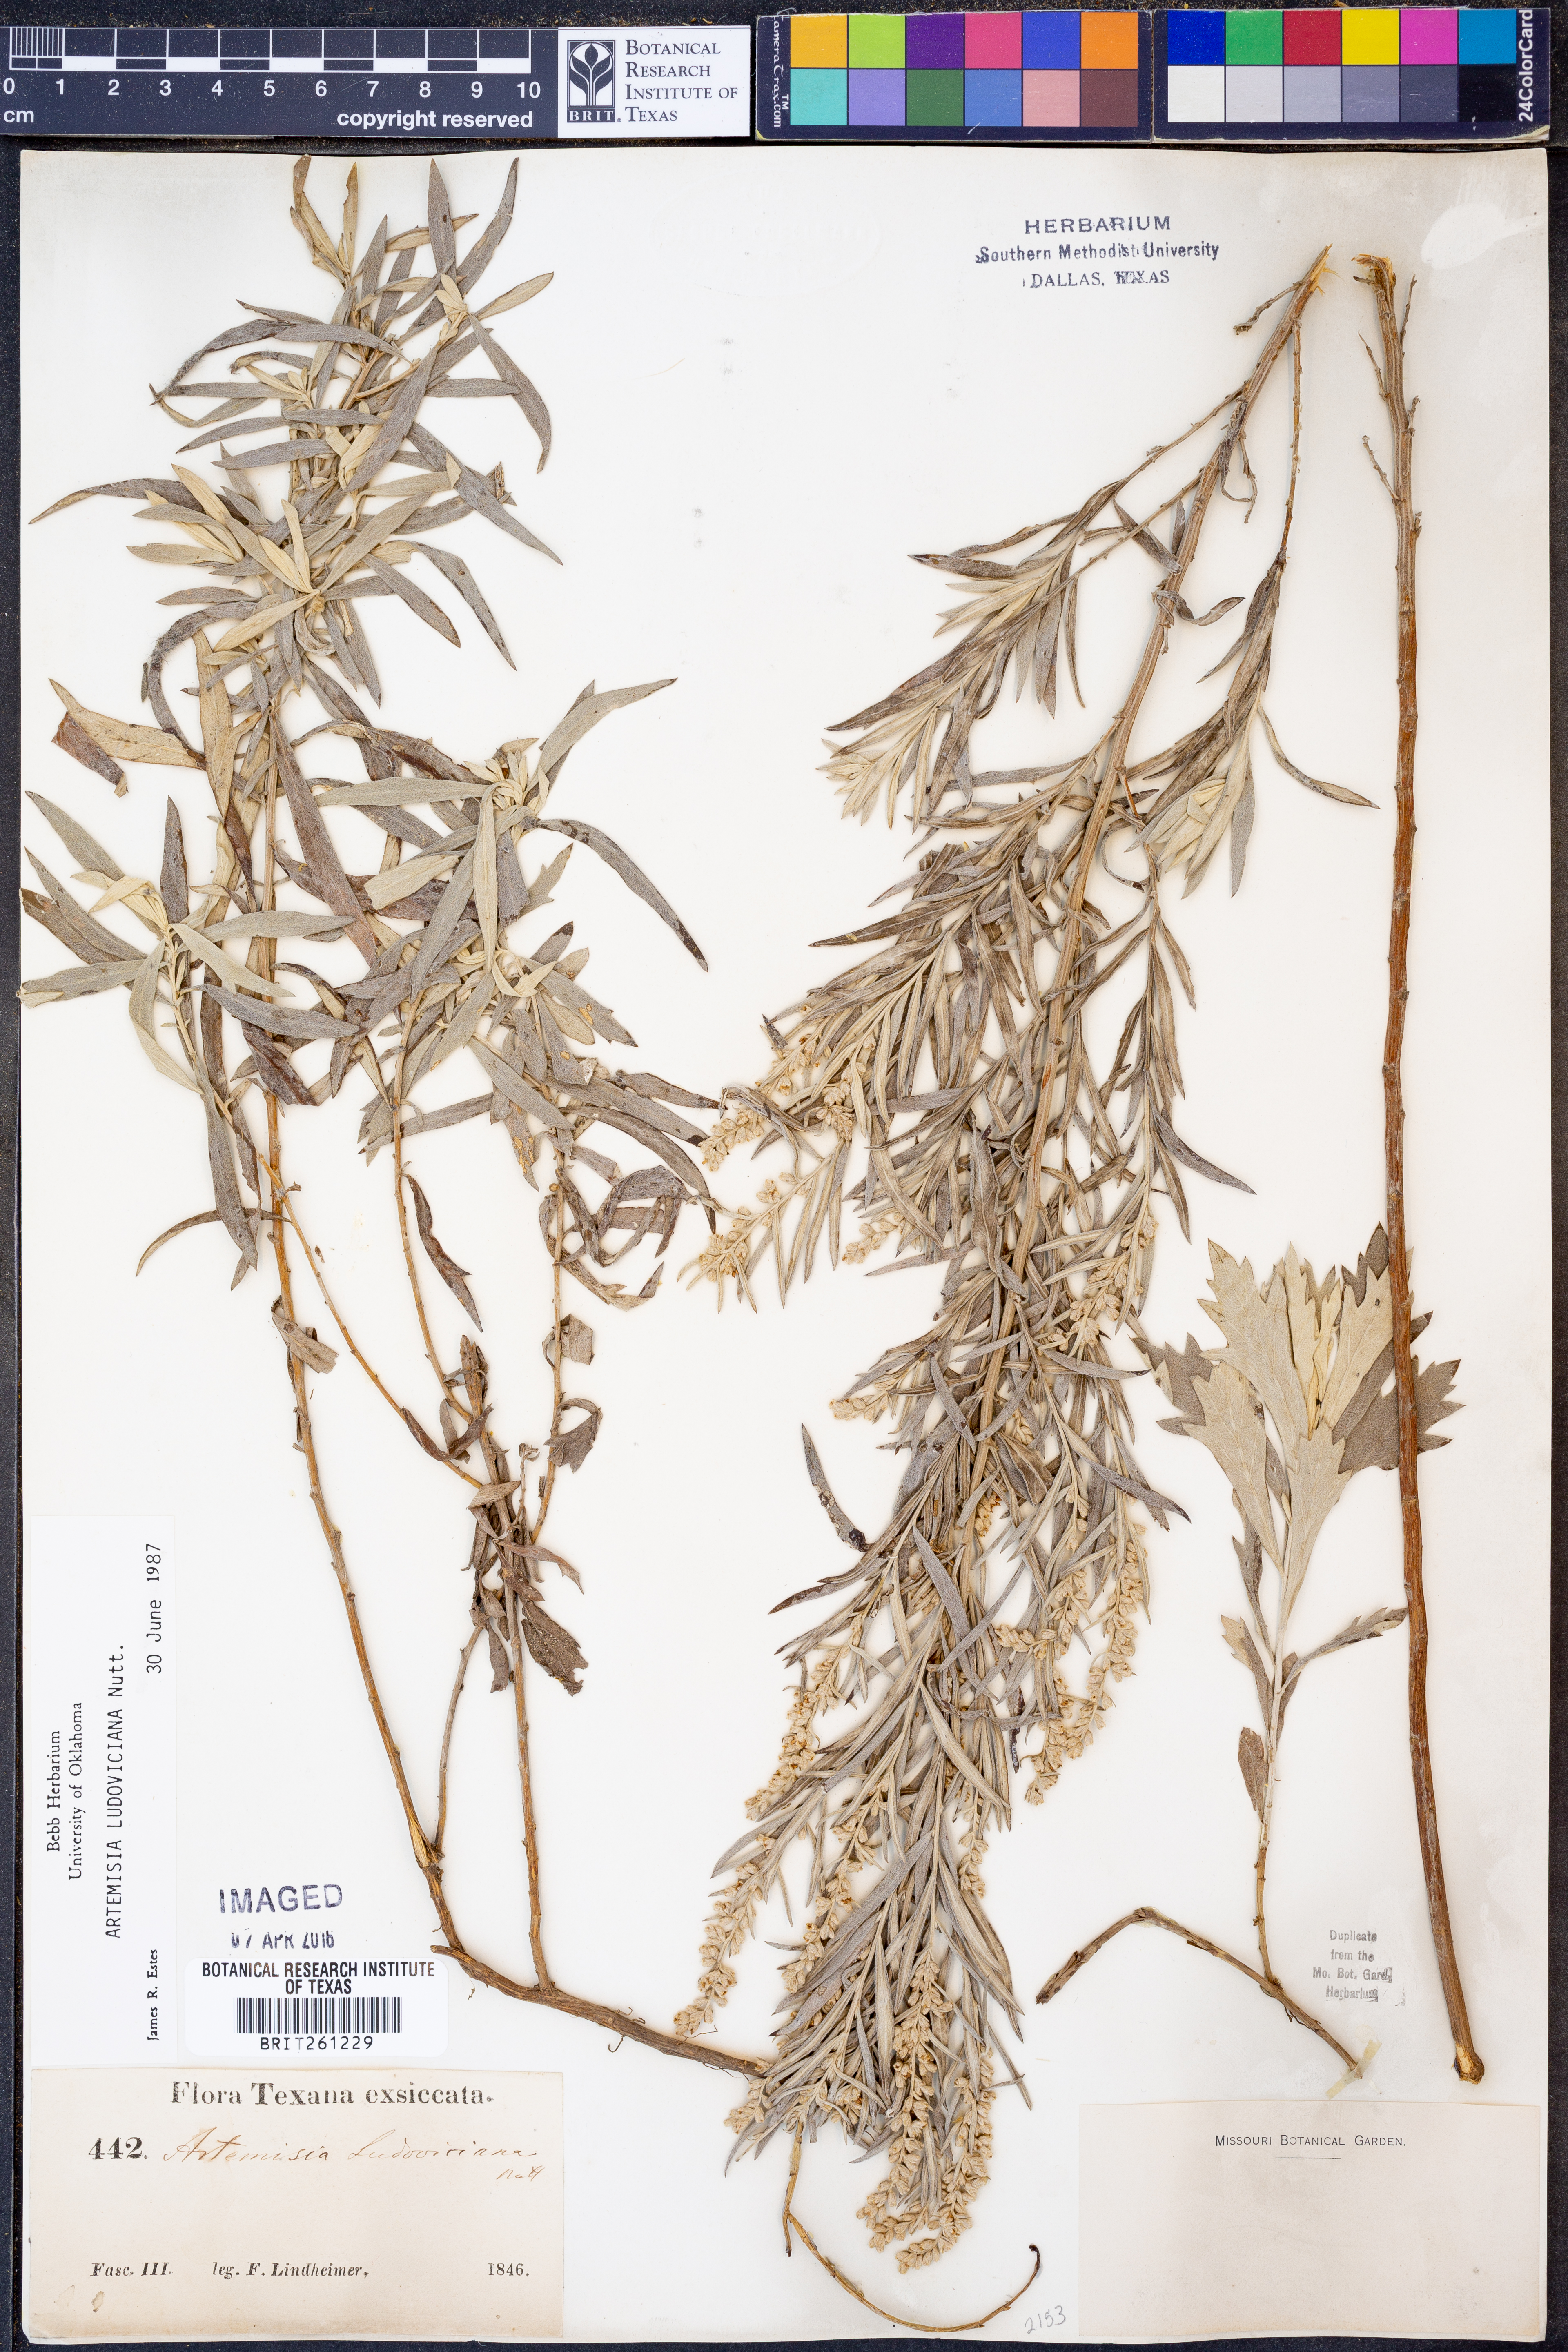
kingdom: Plantae
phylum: Tracheophyta
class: Magnoliopsida
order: Asterales
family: Asteraceae
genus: Artemisia
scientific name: Artemisia ludoviciana
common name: Western mugwort
